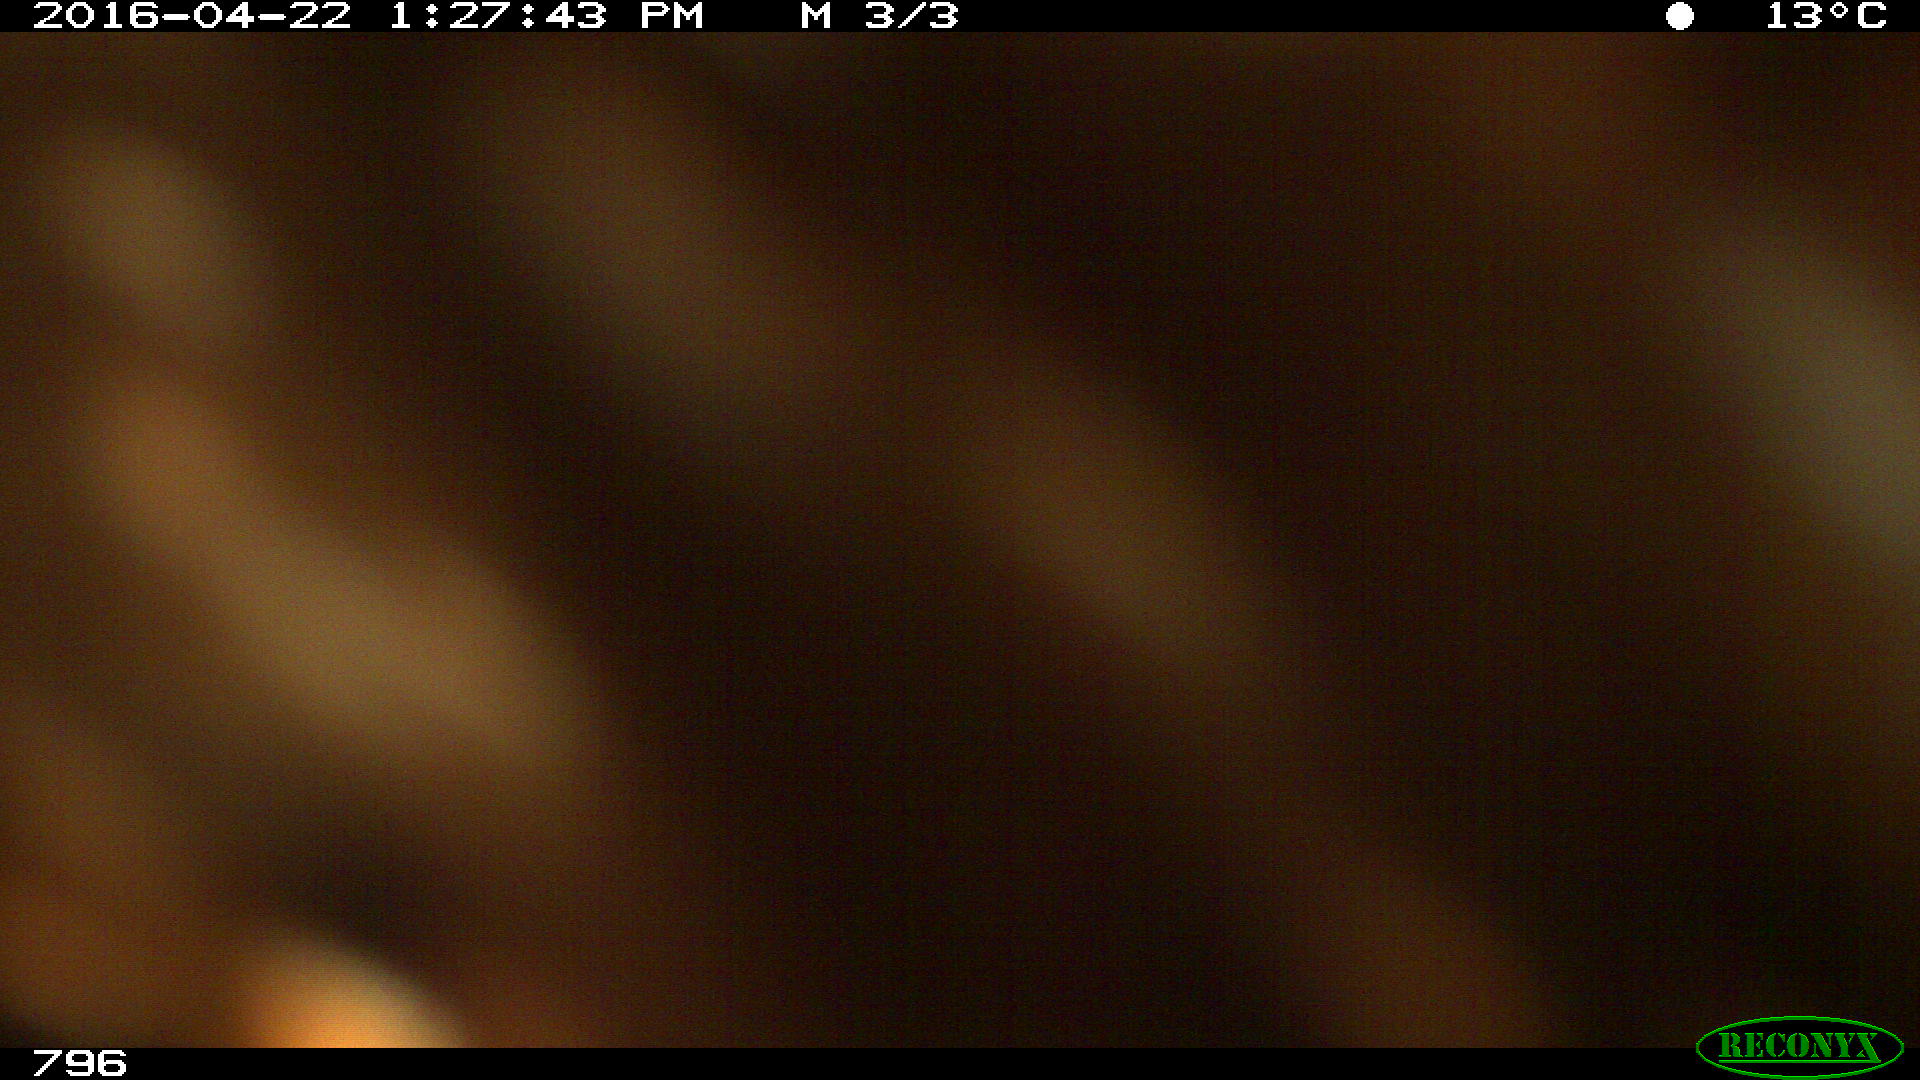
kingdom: Animalia
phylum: Chordata
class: Mammalia
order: Artiodactyla
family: Bovidae
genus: Bos
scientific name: Bos taurus
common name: Domesticated cattle
